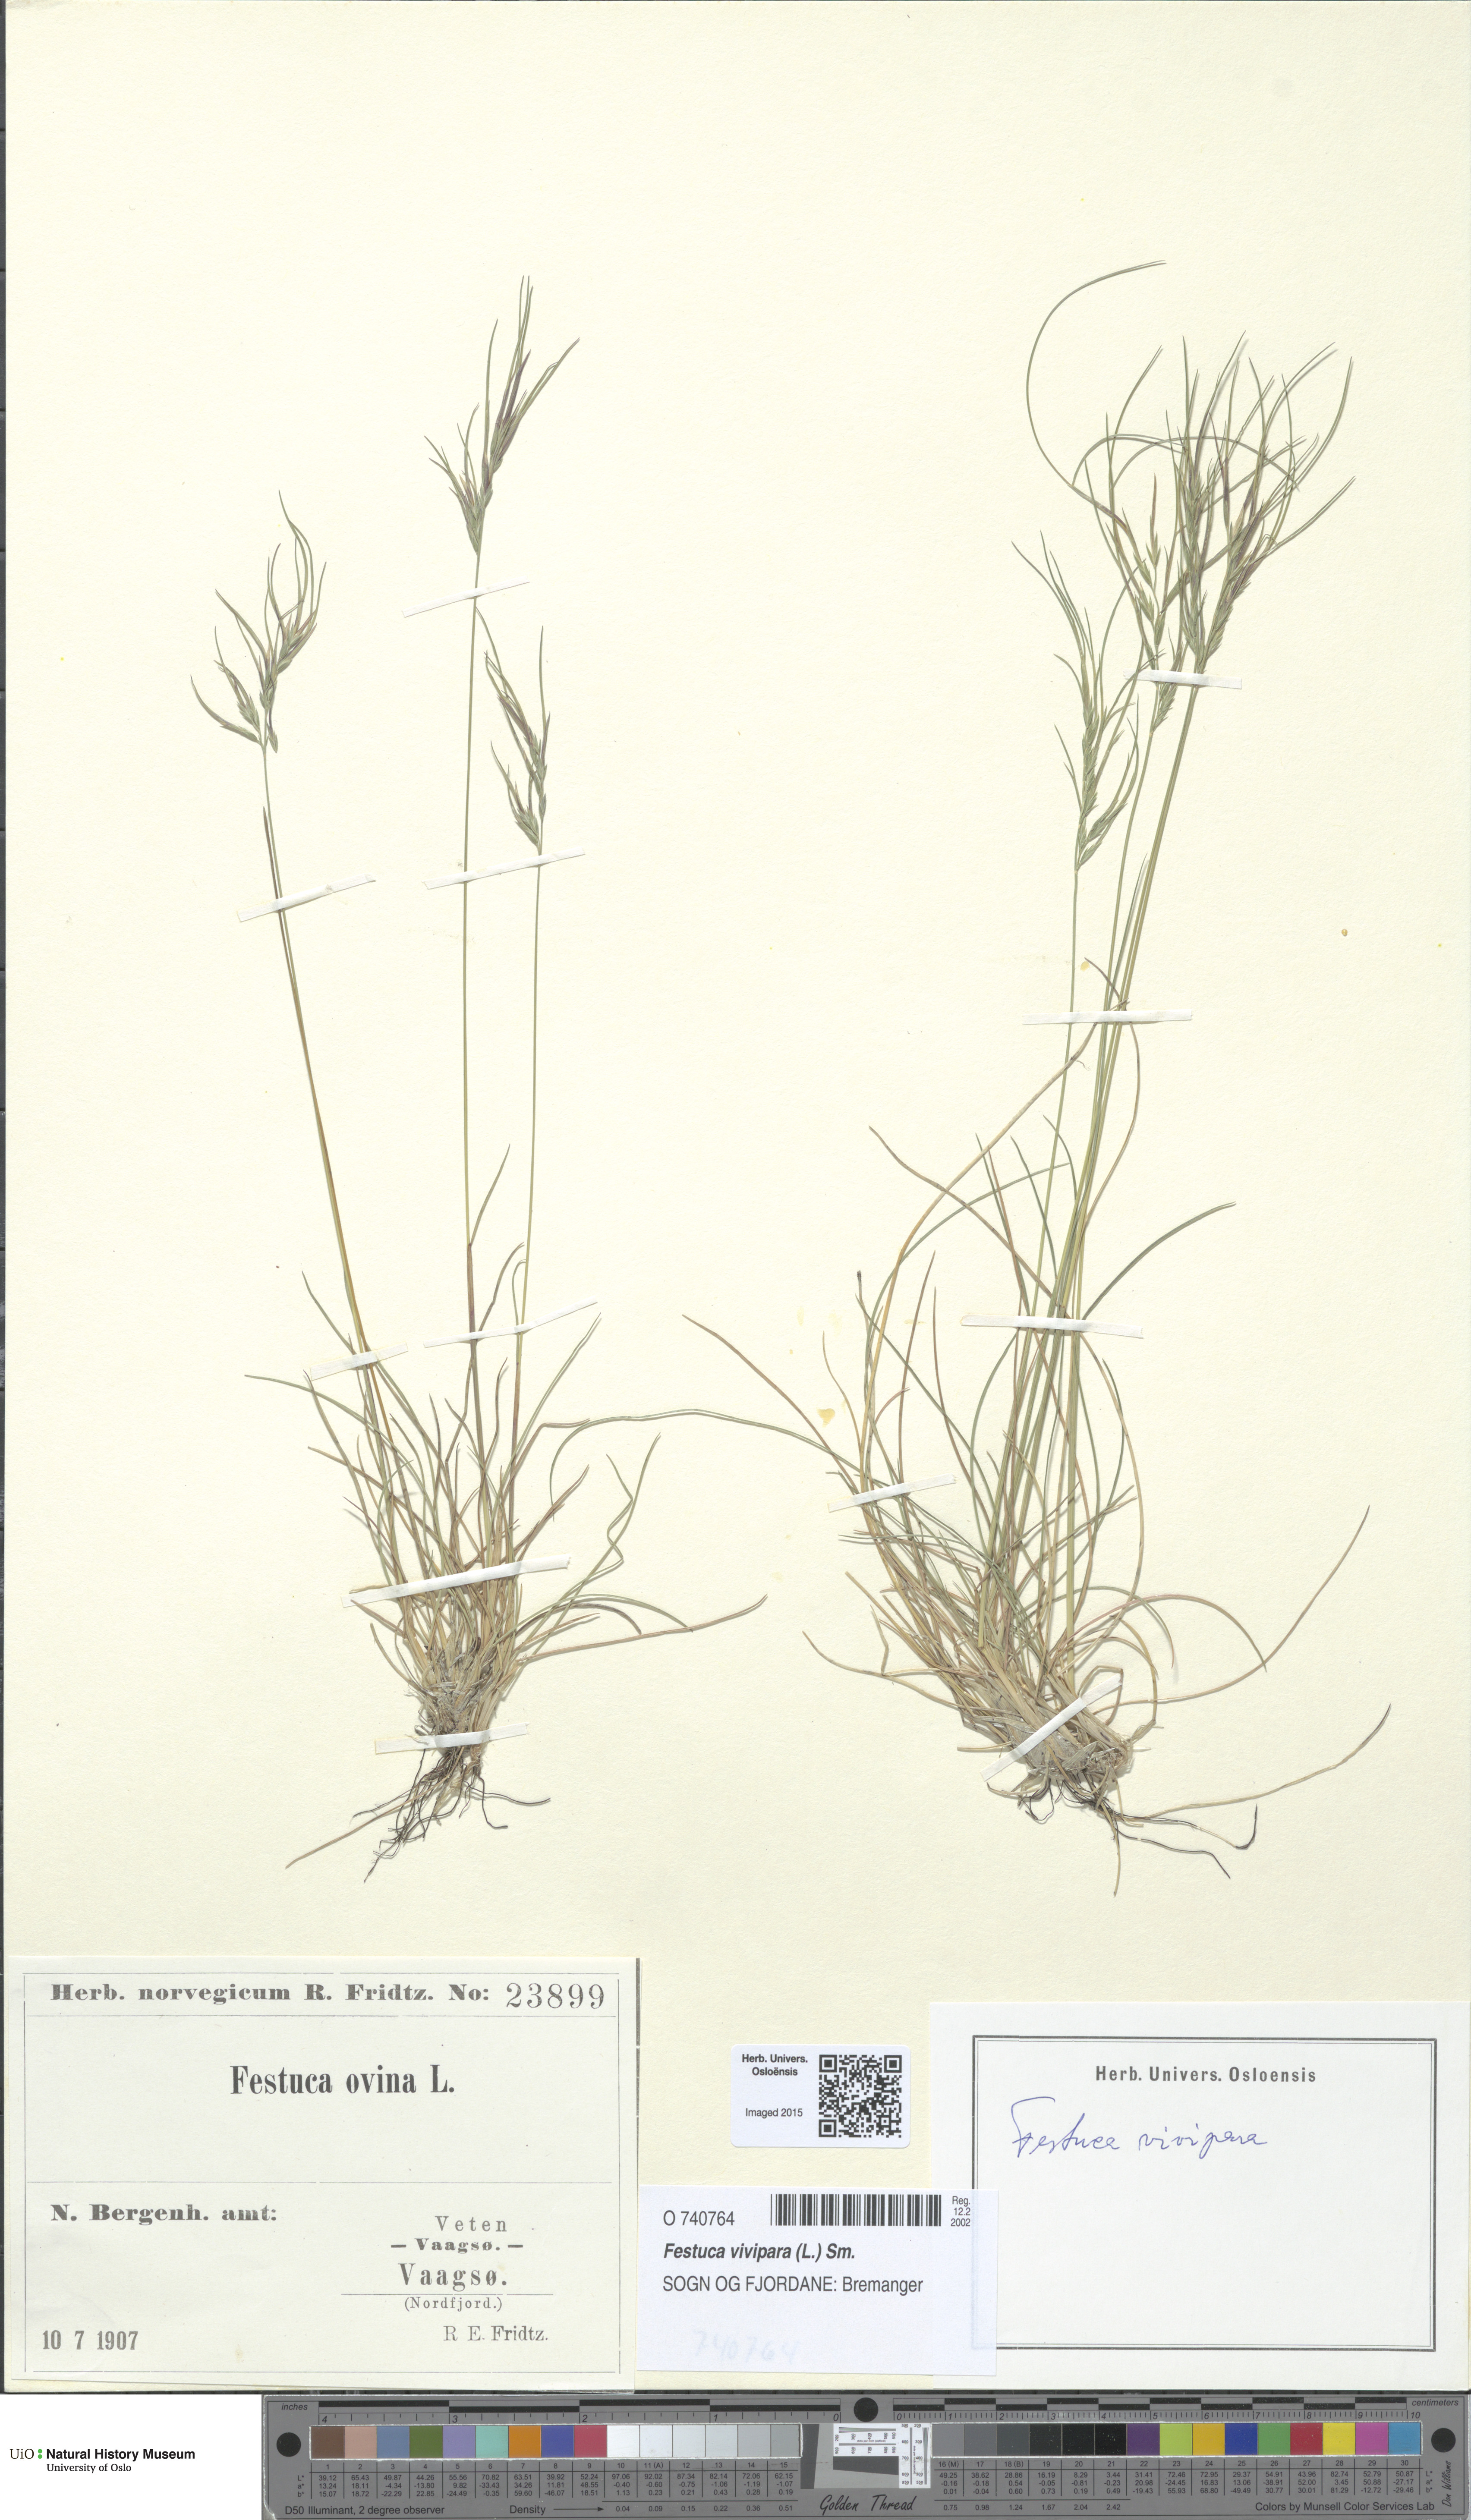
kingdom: Plantae
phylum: Tracheophyta
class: Liliopsida
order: Poales
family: Poaceae
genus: Festuca
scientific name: Festuca vivipara
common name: Viviparous sheep's-fescue
